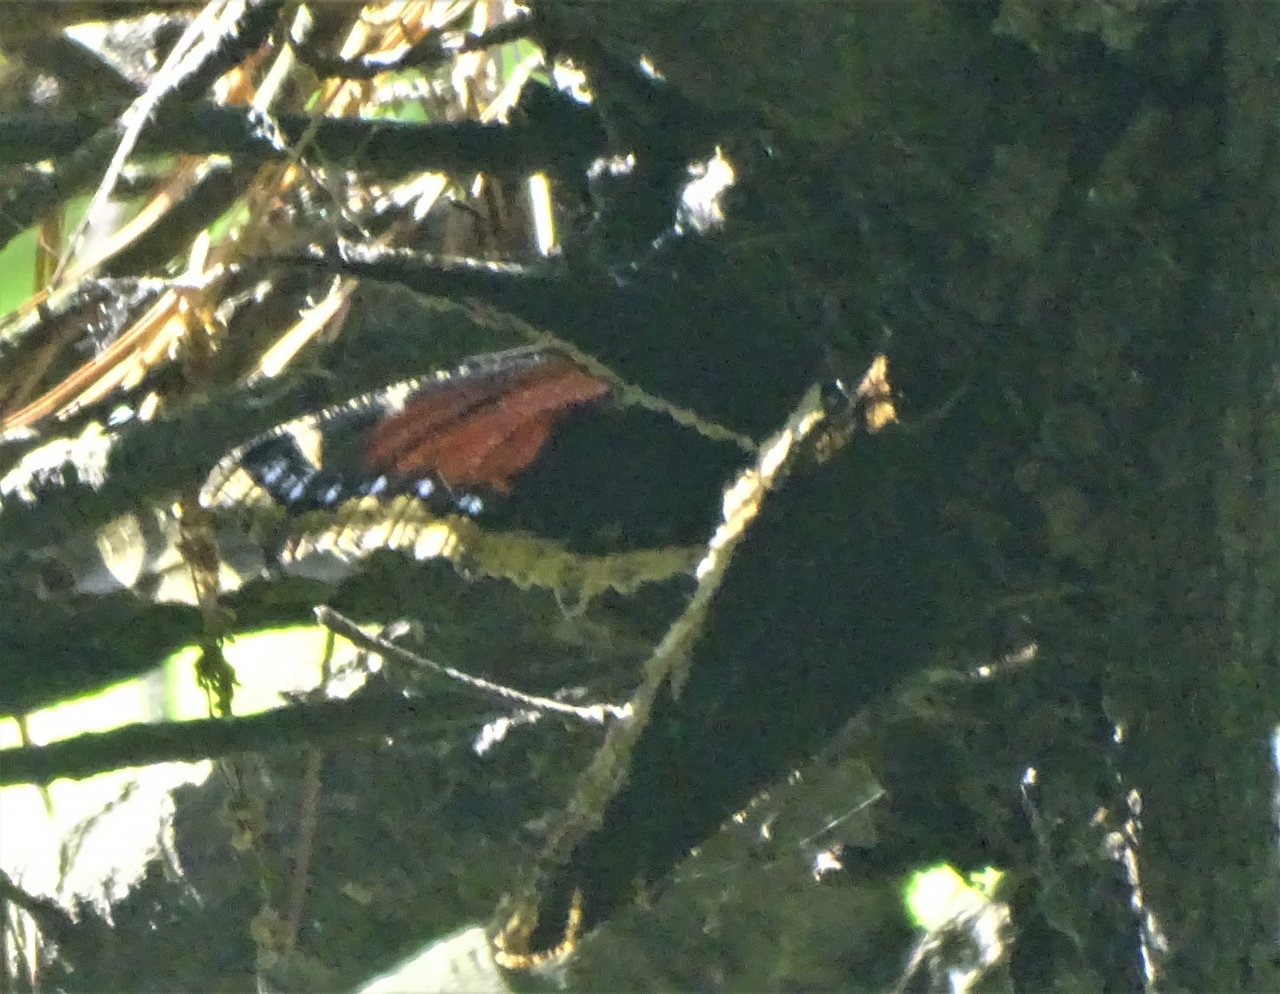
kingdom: Animalia
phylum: Arthropoda
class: Insecta
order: Lepidoptera
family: Nymphalidae
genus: Nymphalis
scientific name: Nymphalis antiopa
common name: Mourning Cloak
